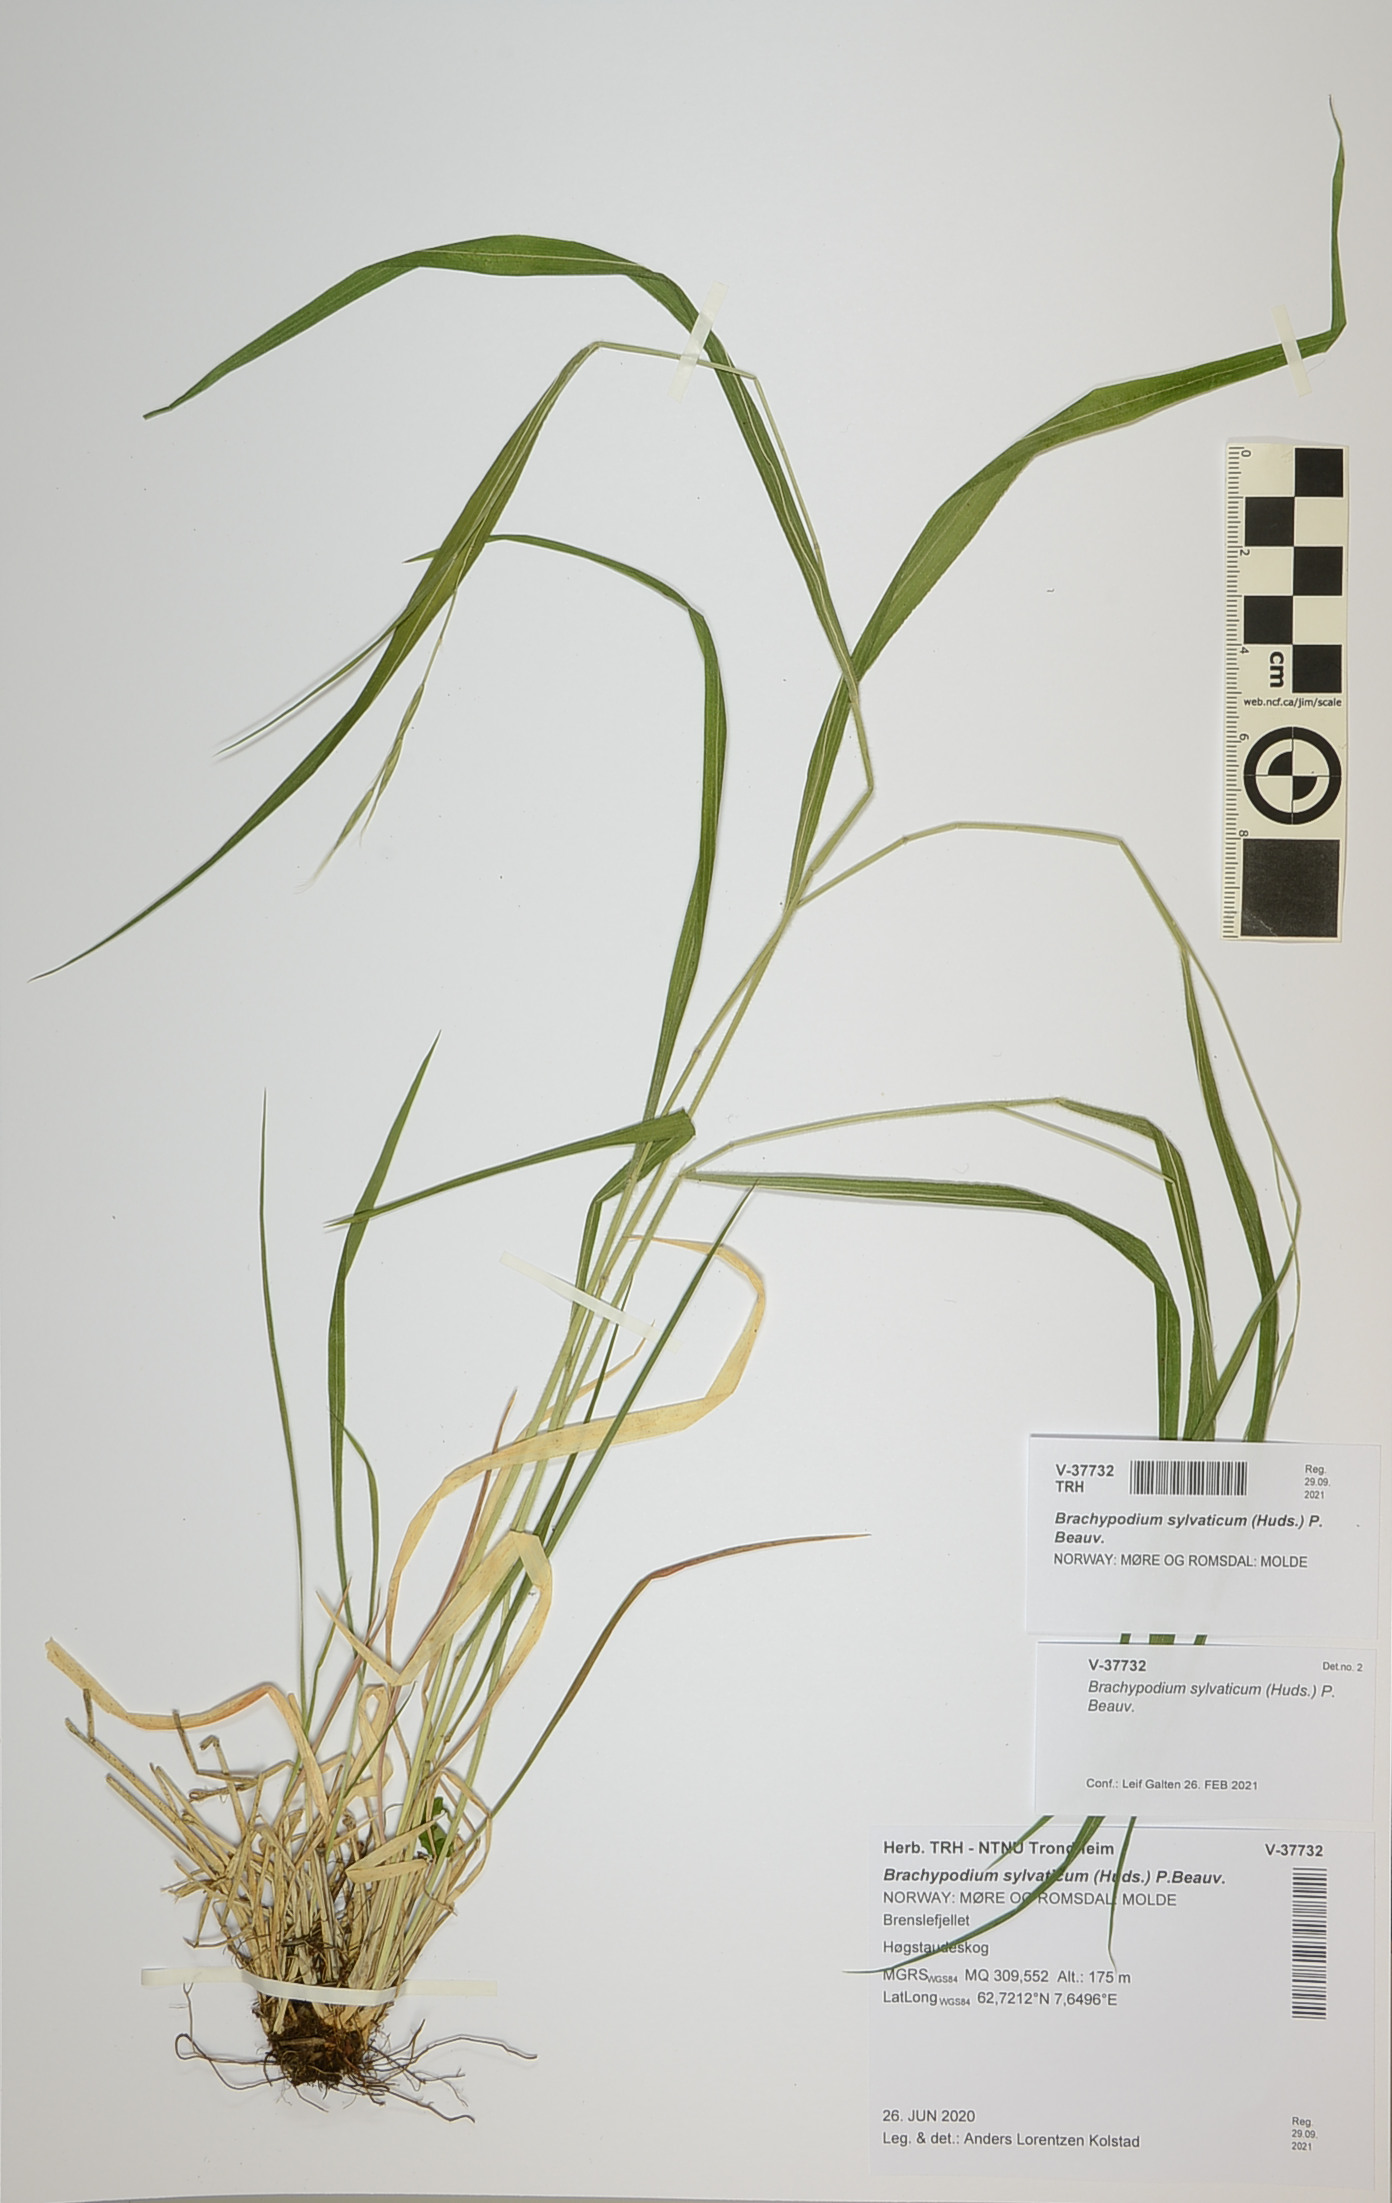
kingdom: Plantae
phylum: Tracheophyta
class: Liliopsida
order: Poales
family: Poaceae
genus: Brachypodium
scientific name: Brachypodium sylvaticum
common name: False-brome
